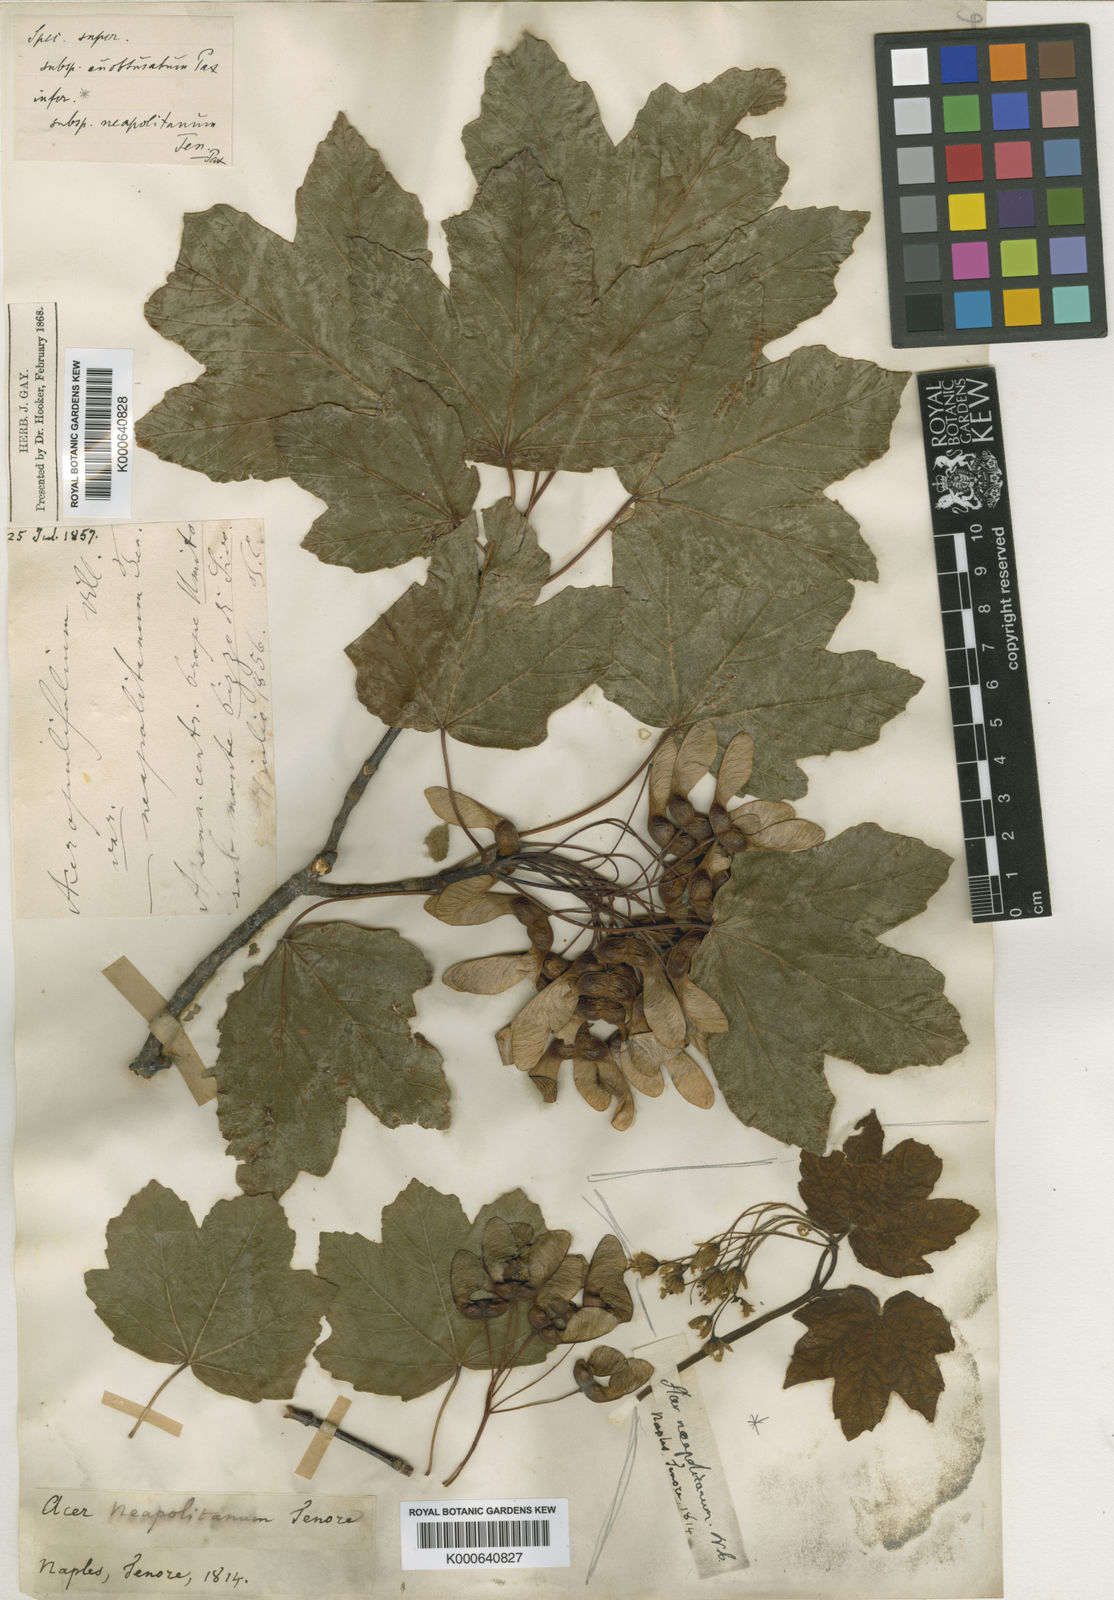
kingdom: Plantae
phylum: Tracheophyta
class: Magnoliopsida
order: Sapindales
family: Sapindaceae
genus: Acer
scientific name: Acer opalus
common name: Italian maple
